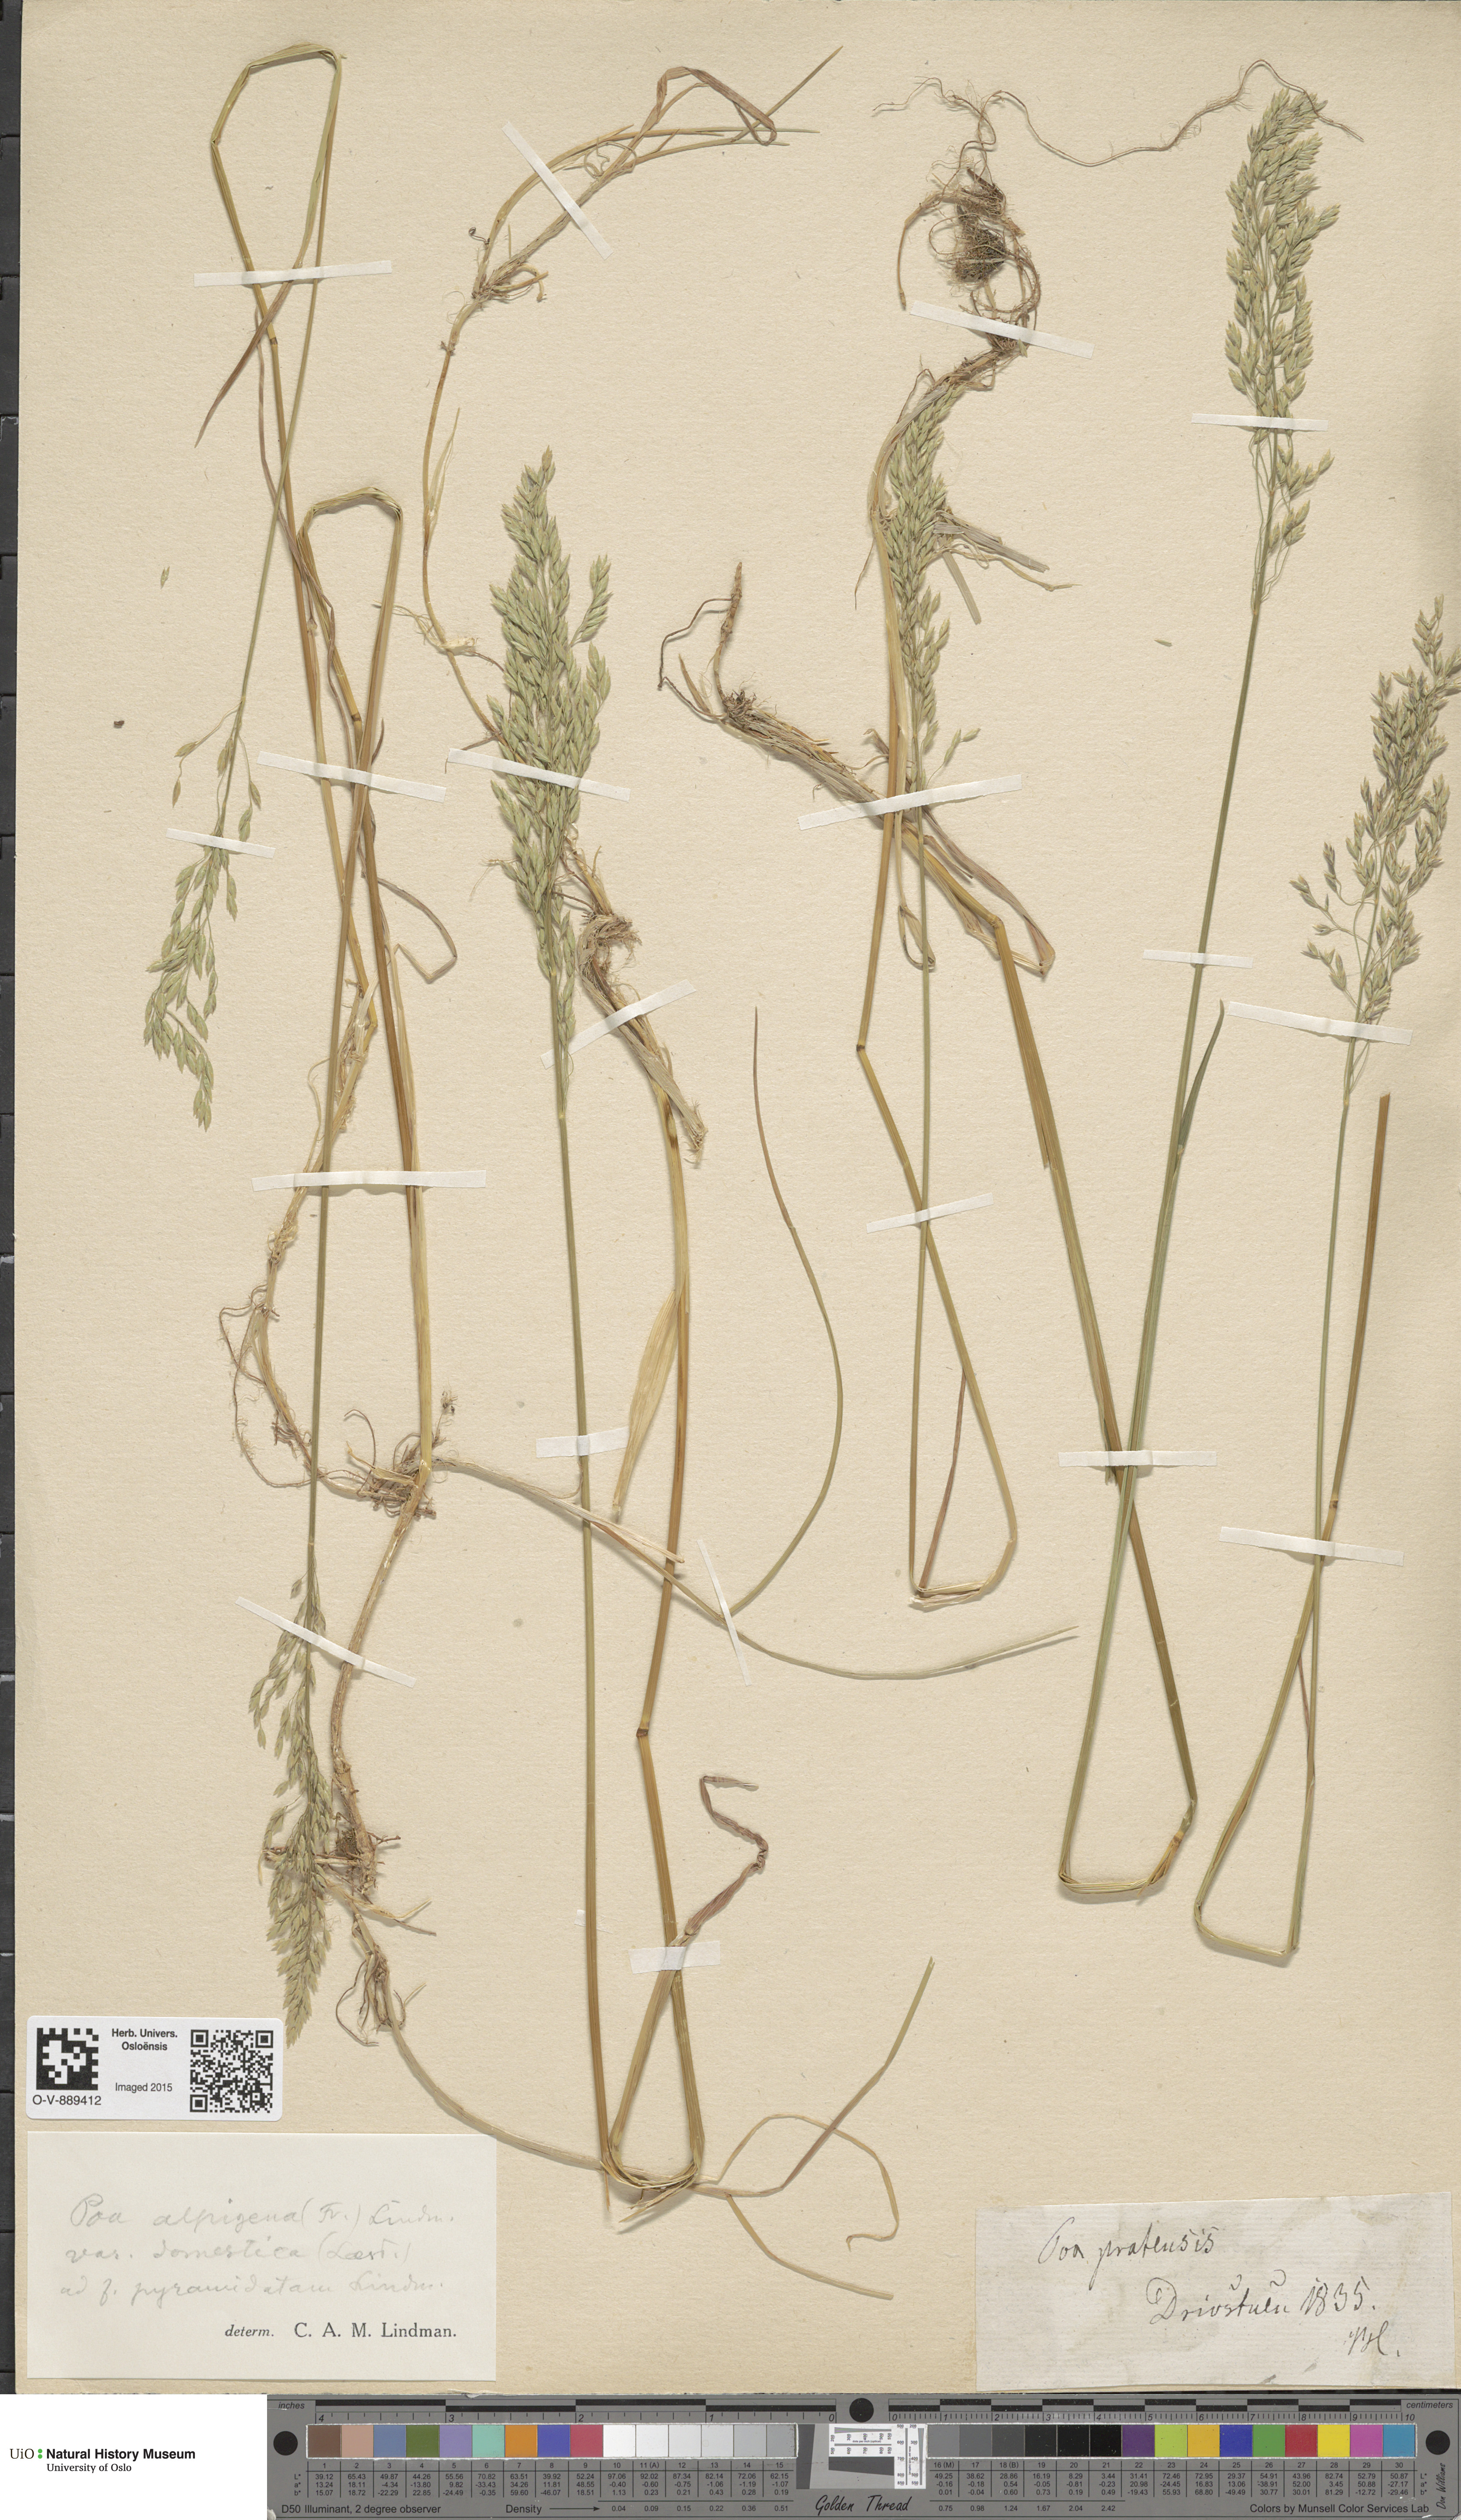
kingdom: Plantae
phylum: Tracheophyta
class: Liliopsida
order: Poales
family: Poaceae
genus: Poa
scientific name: Poa pratensis
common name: Kentucky bluegrass
